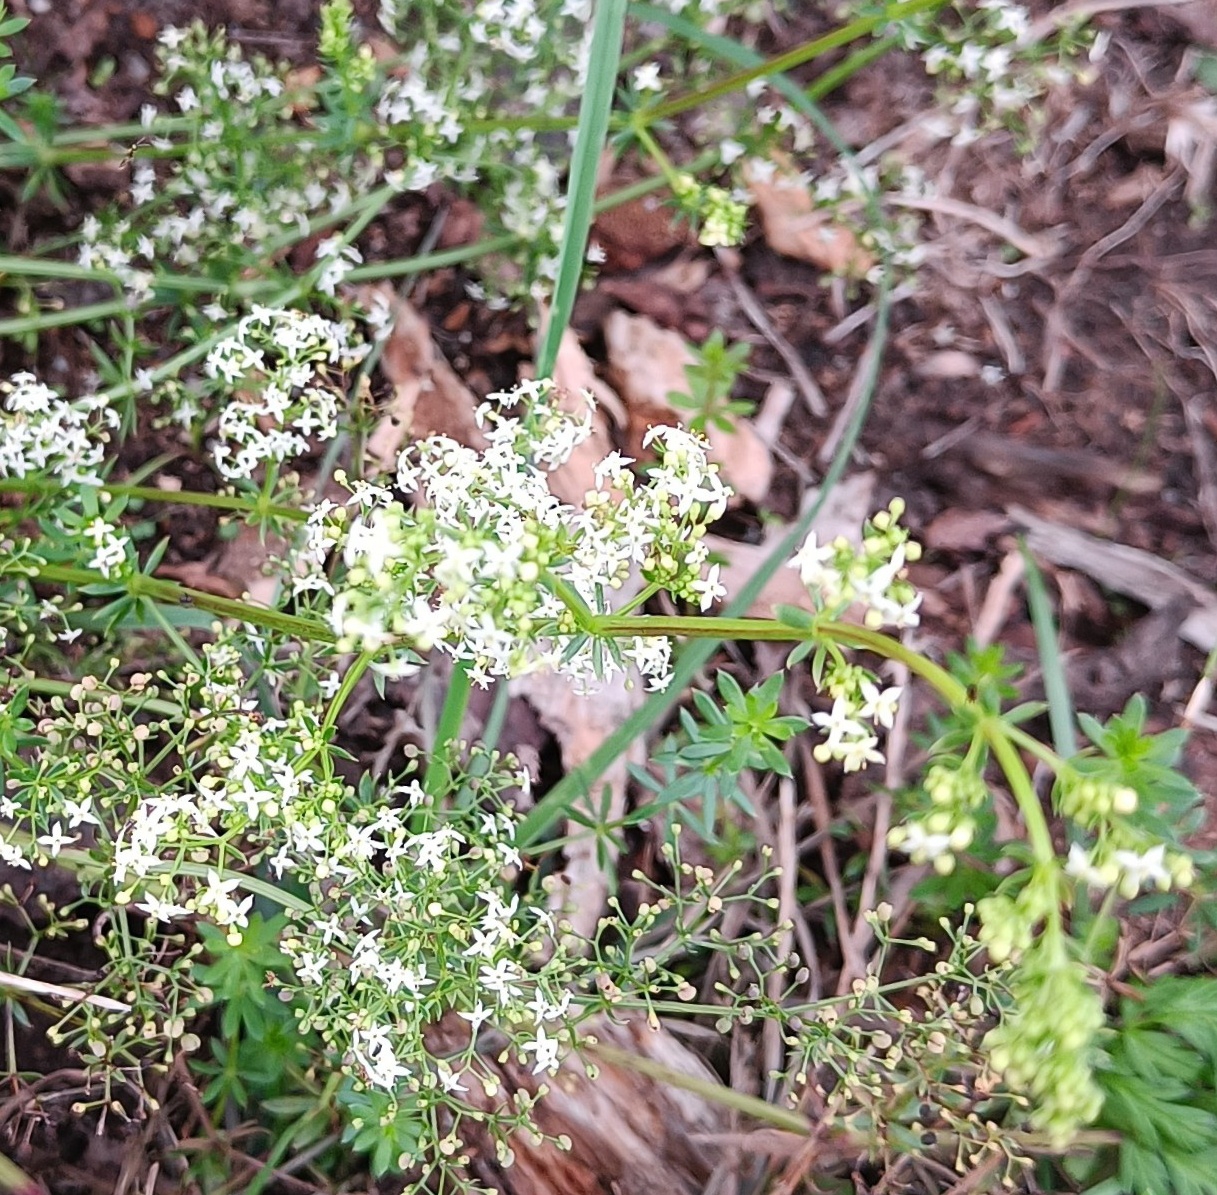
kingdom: Plantae
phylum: Tracheophyta
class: Magnoliopsida
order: Gentianales
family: Rubiaceae
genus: Galium
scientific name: Galium mollugo
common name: Hvid snerre
